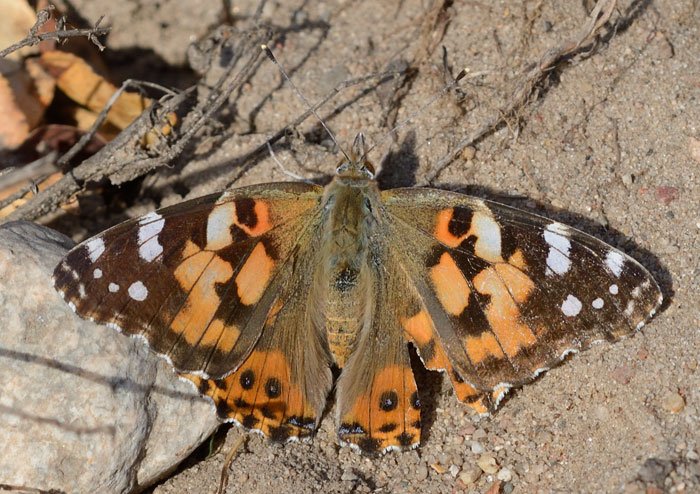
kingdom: Animalia
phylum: Arthropoda
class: Insecta
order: Lepidoptera
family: Nymphalidae
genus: Vanessa
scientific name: Vanessa cardui
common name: Painted Lady
